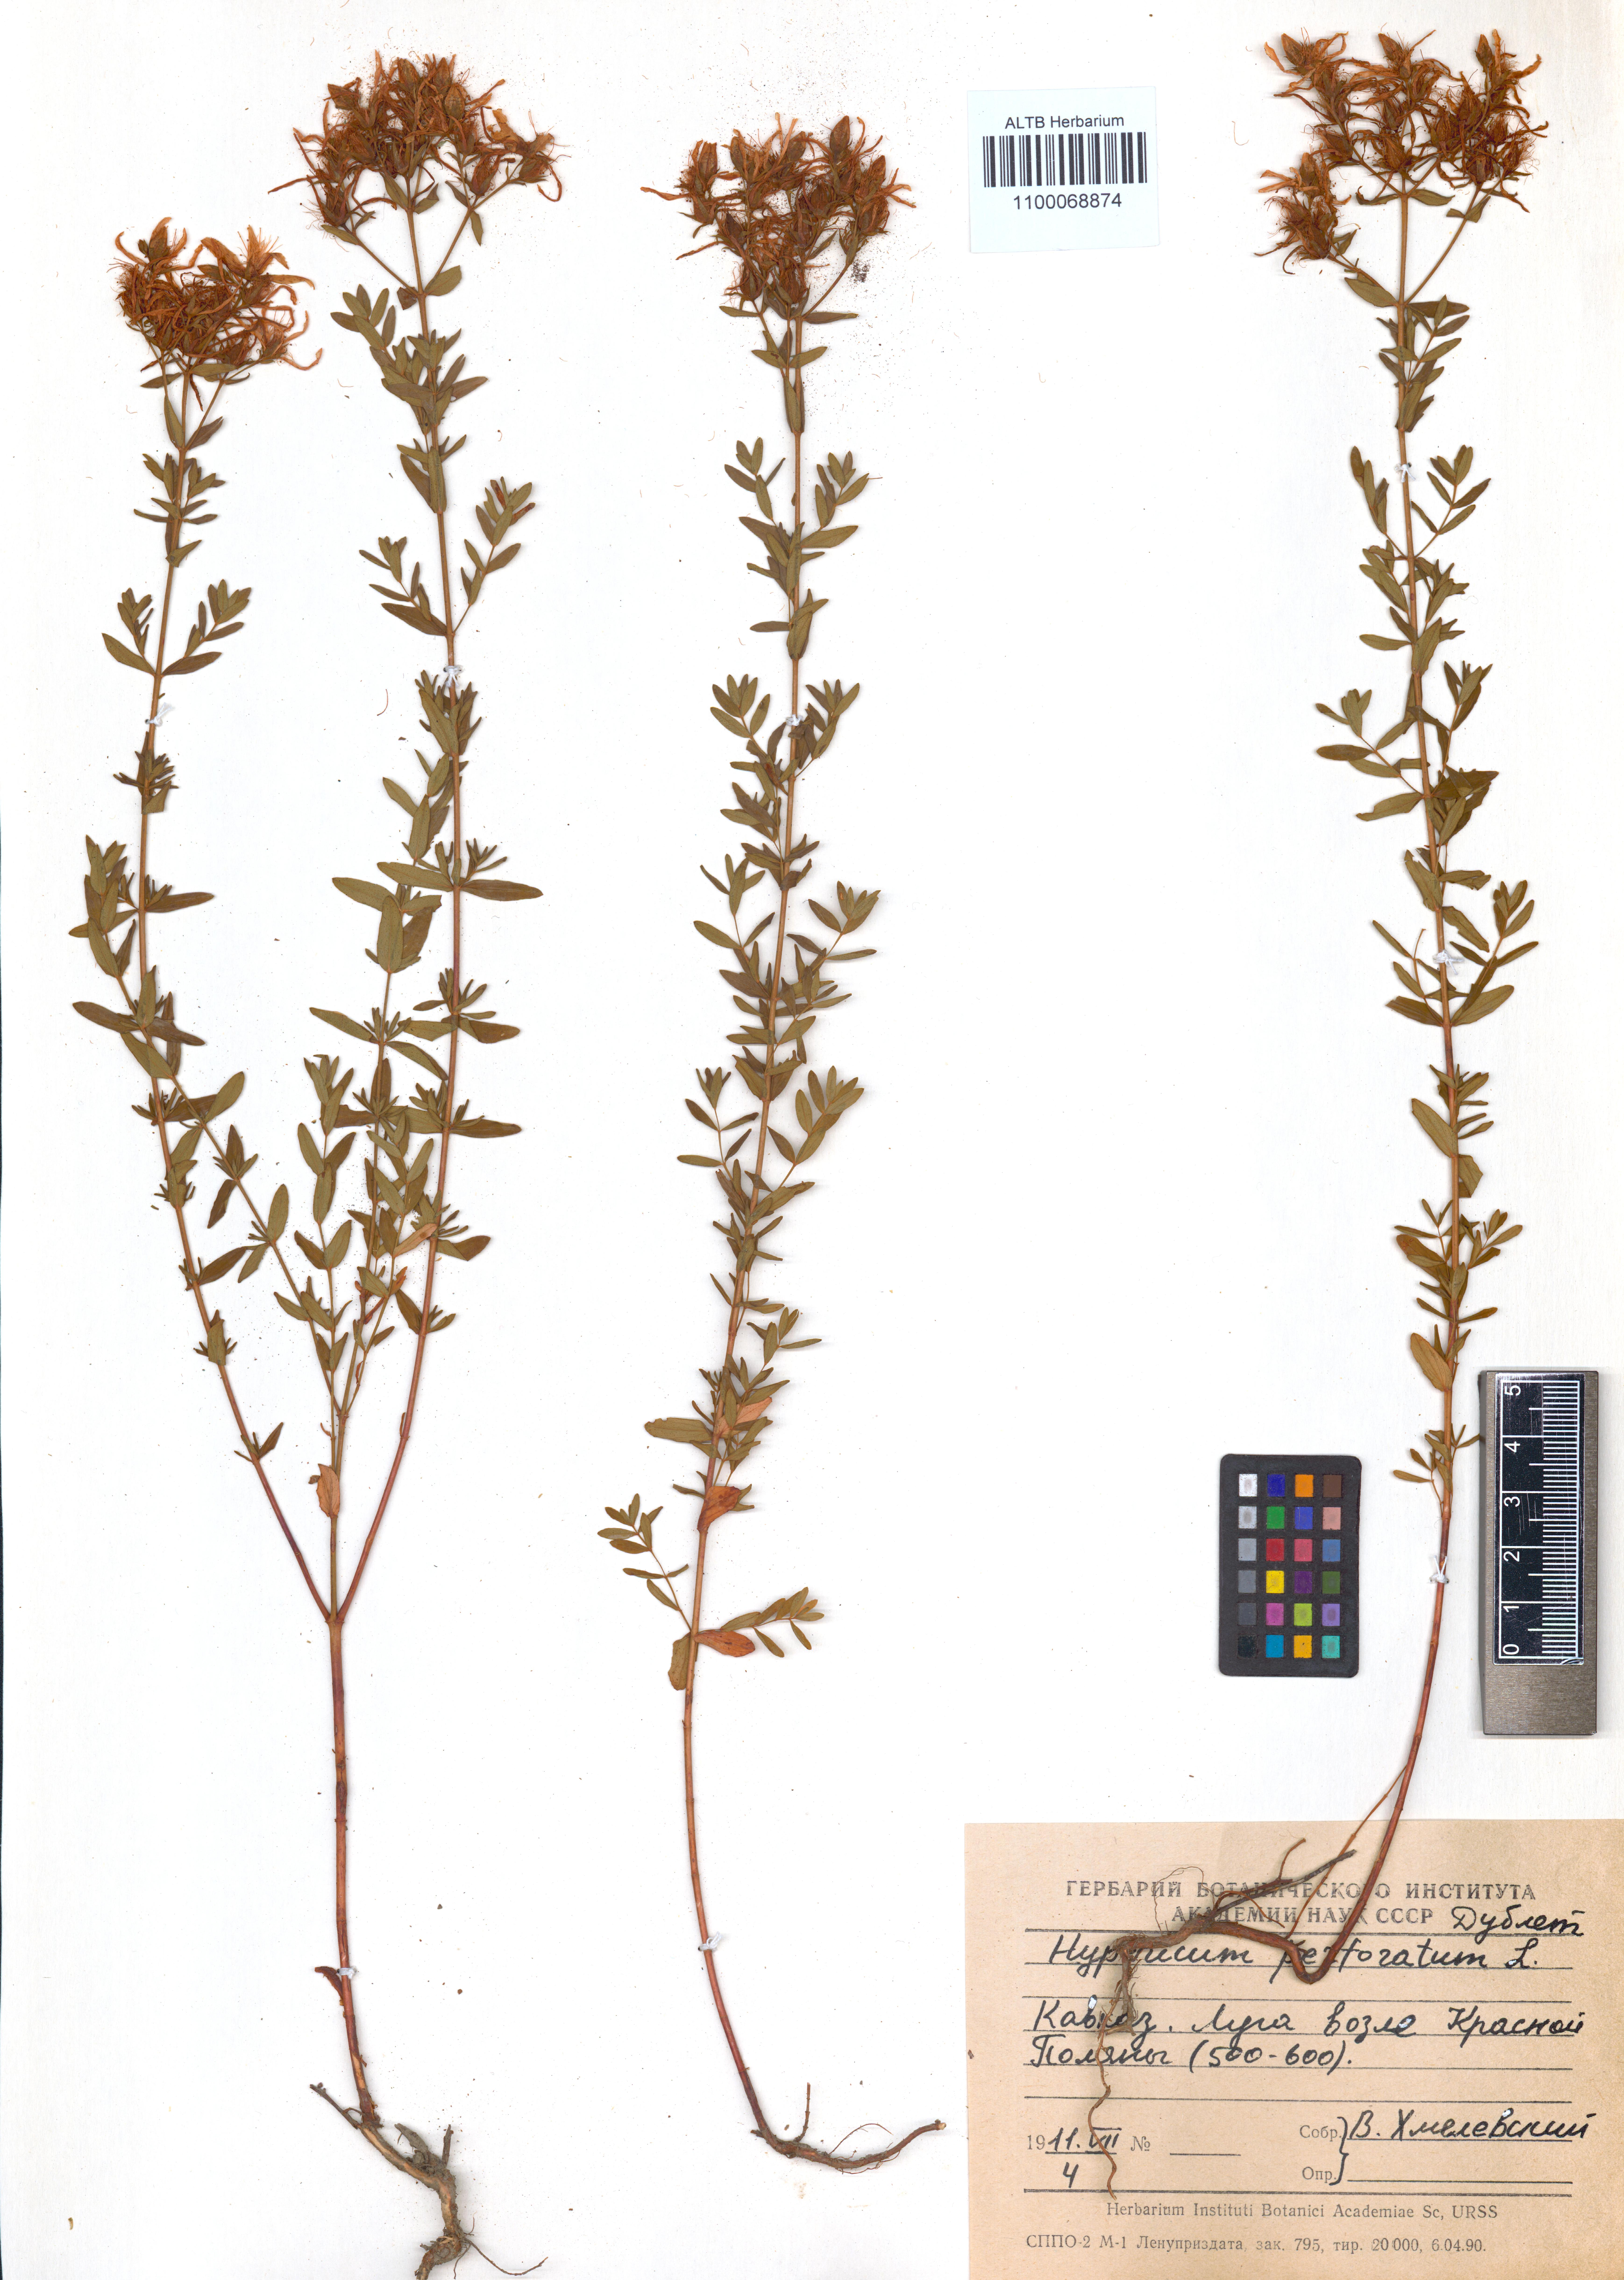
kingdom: Plantae
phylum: Tracheophyta
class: Magnoliopsida
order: Malpighiales
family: Hypericaceae
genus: Hypericum
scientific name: Hypericum perforatum
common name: Common st. johnswort
